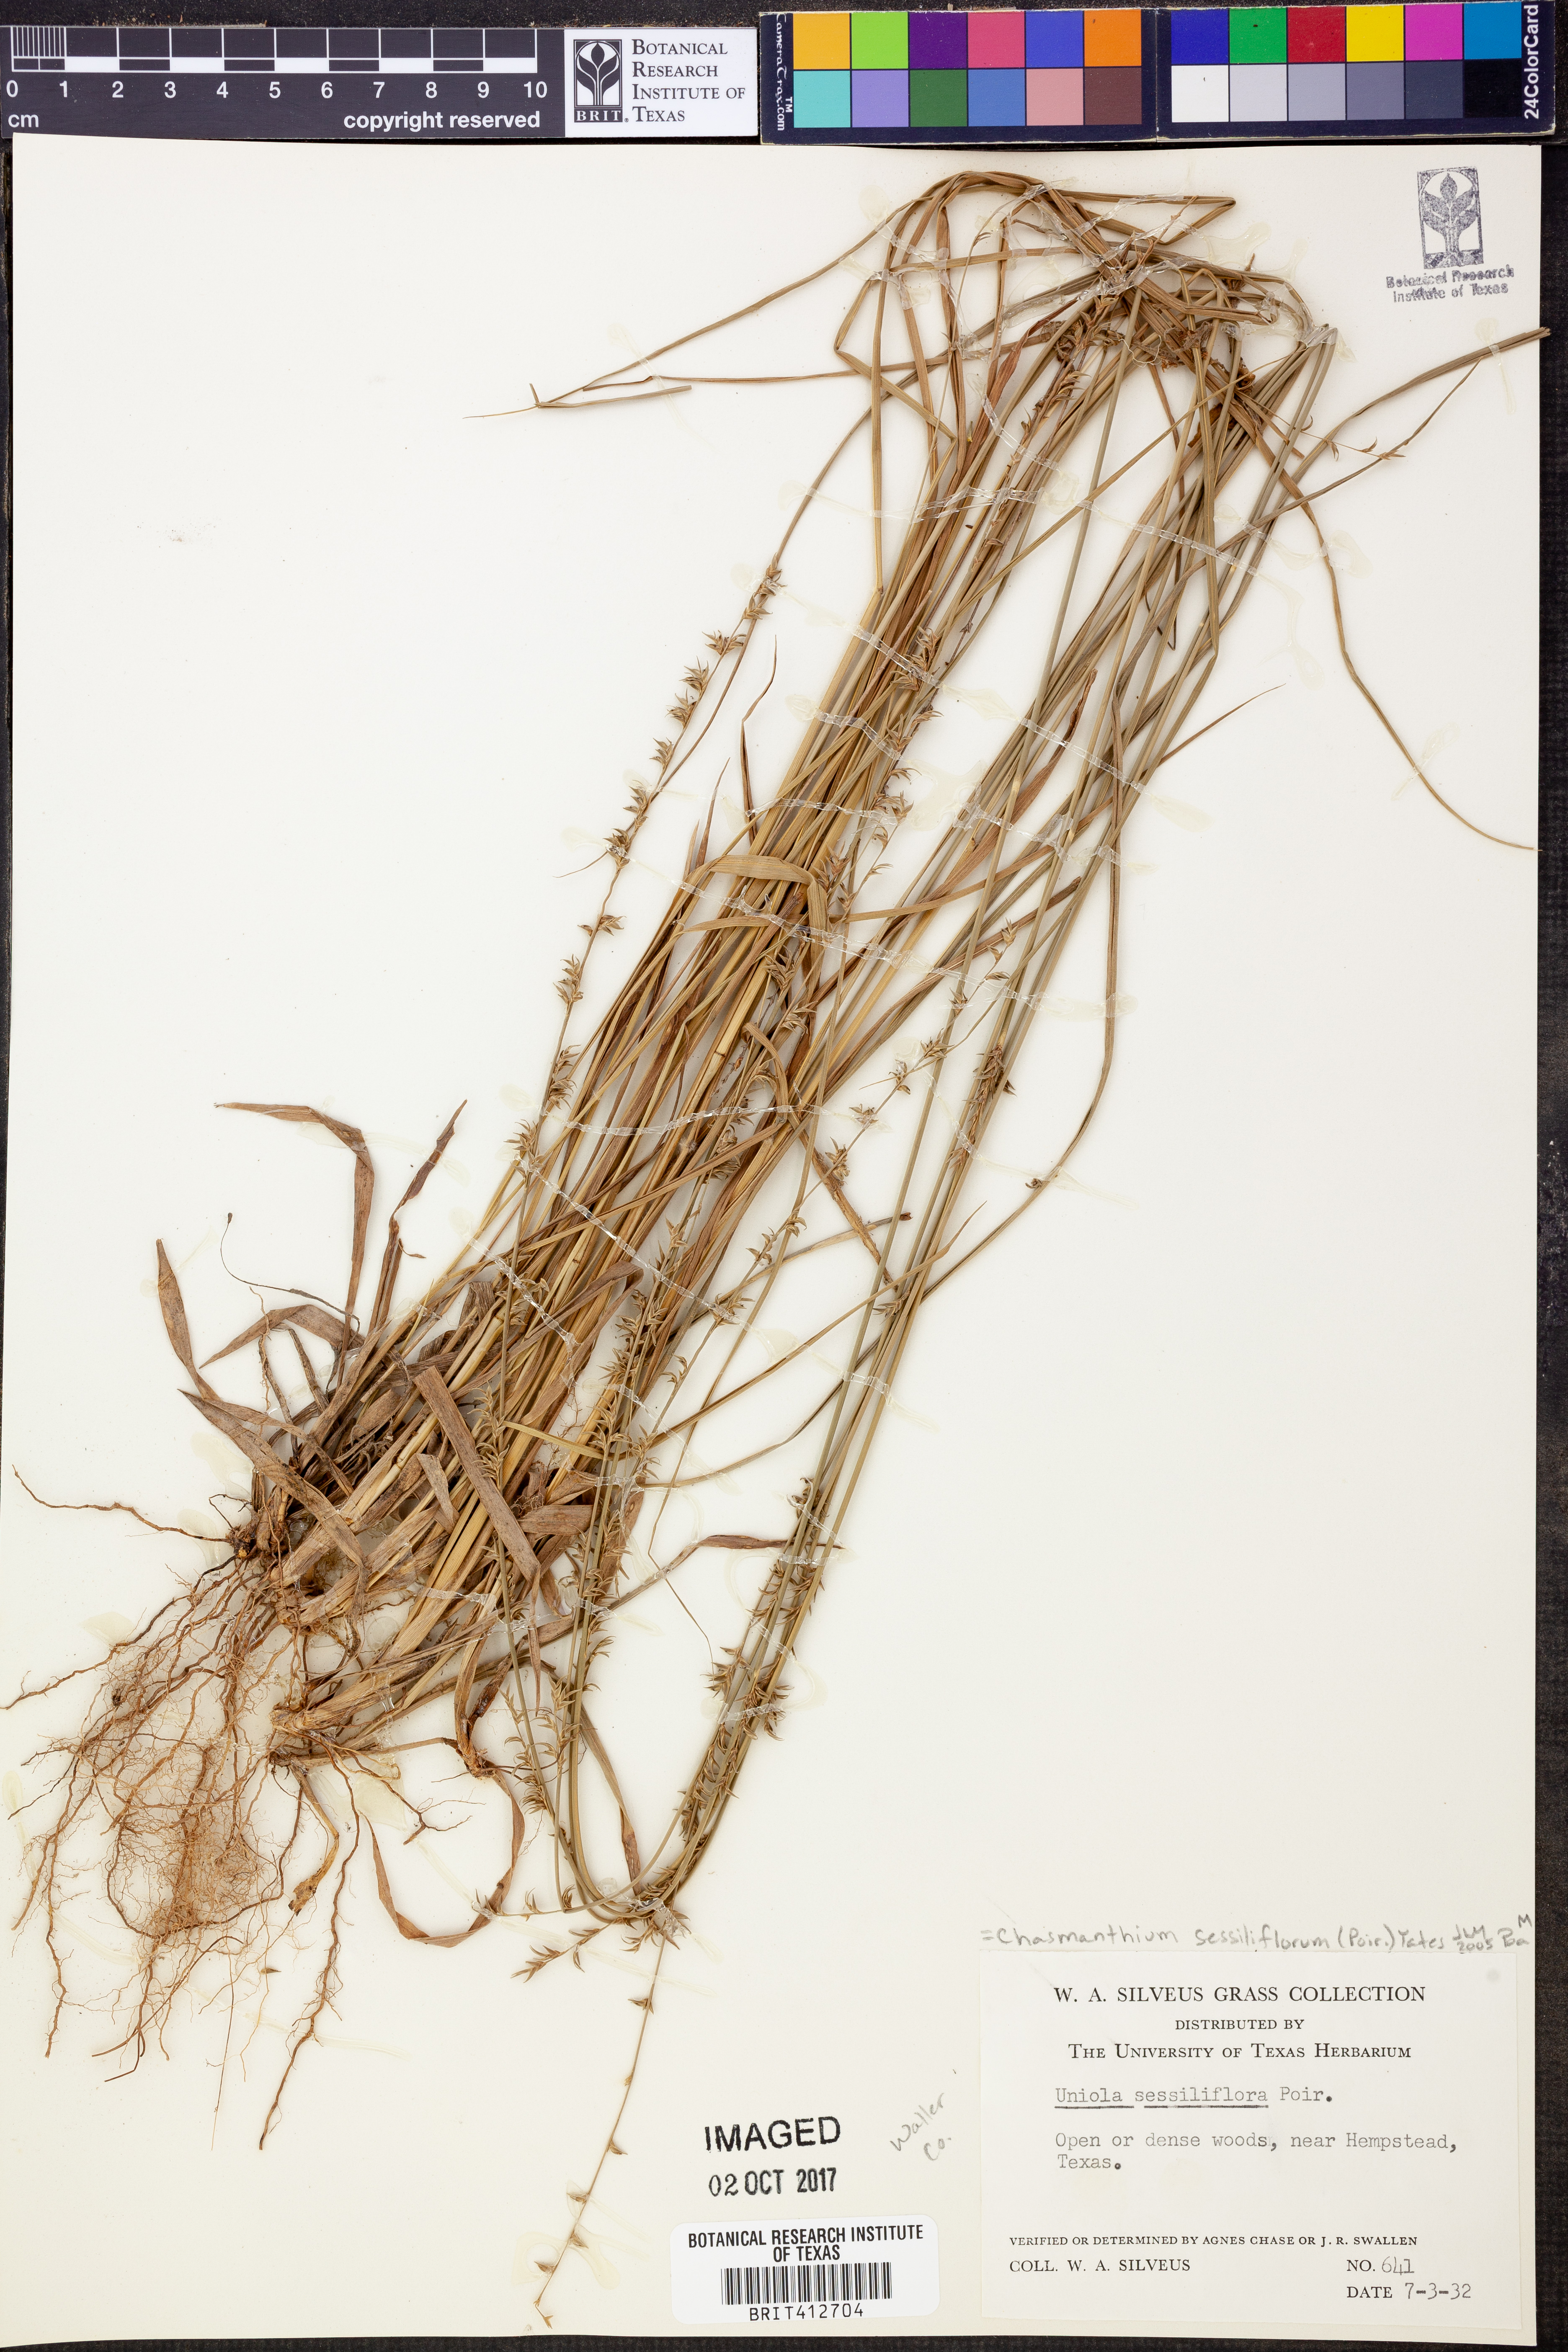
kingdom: Plantae
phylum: Tracheophyta
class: Liliopsida
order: Poales
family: Poaceae
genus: Chasmanthium
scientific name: Chasmanthium laxum
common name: Slender chasmanthium
